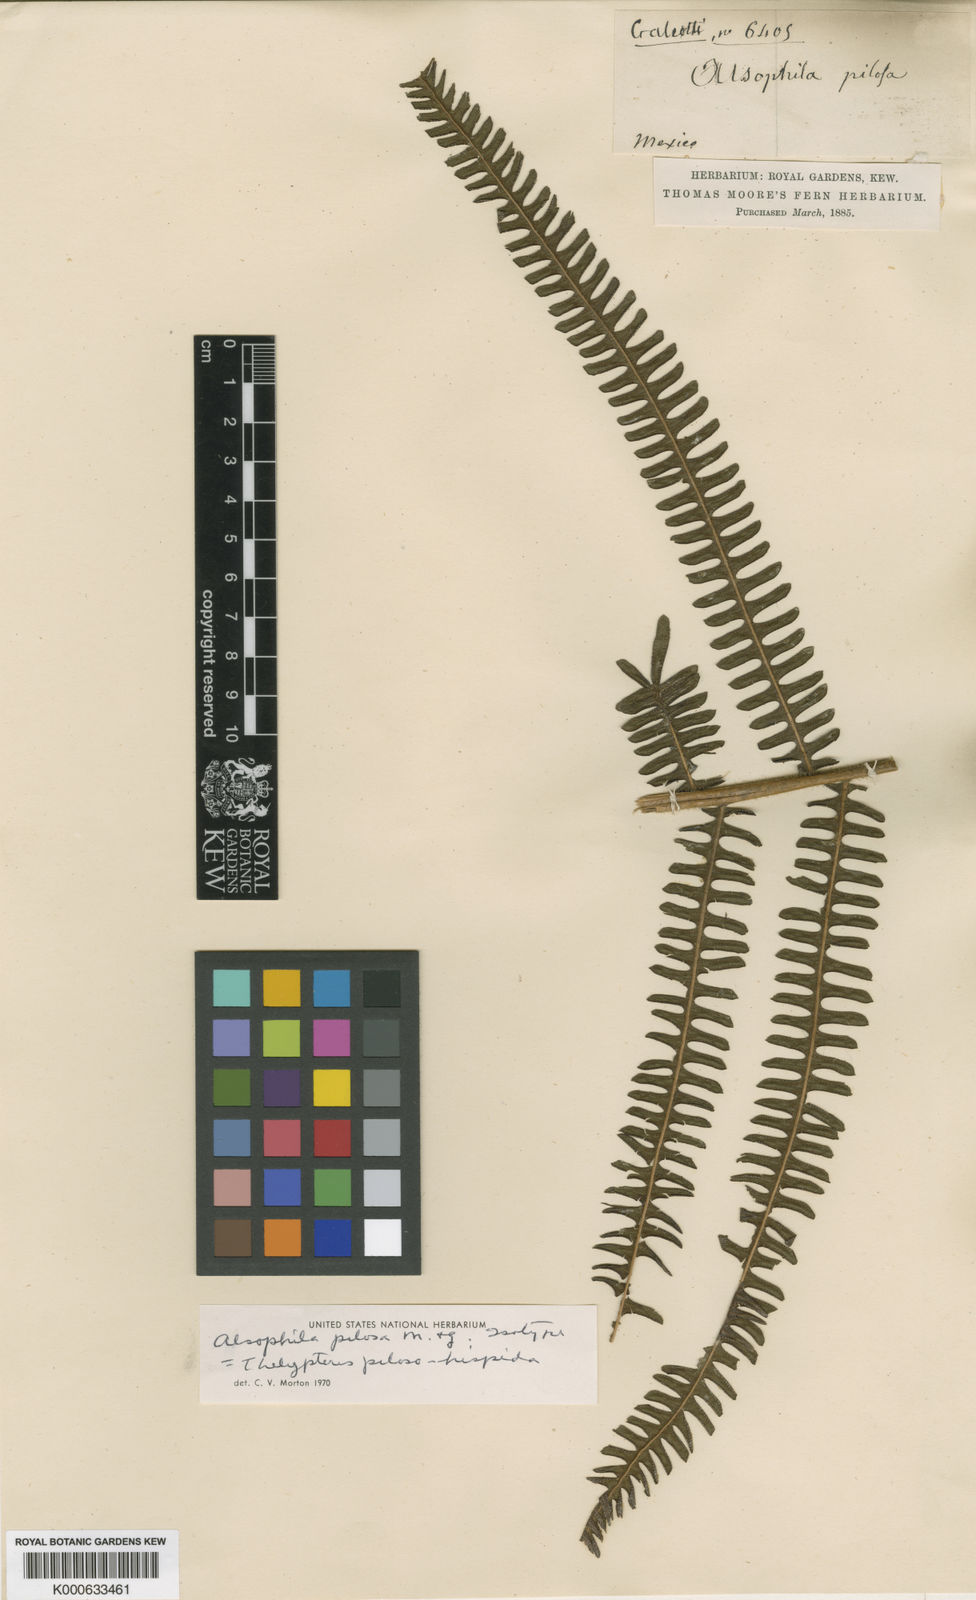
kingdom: Plantae
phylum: Tracheophyta
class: Polypodiopsida
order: Polypodiales
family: Thelypteridaceae
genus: Amauropelta
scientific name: Amauropelta pilosohispida
